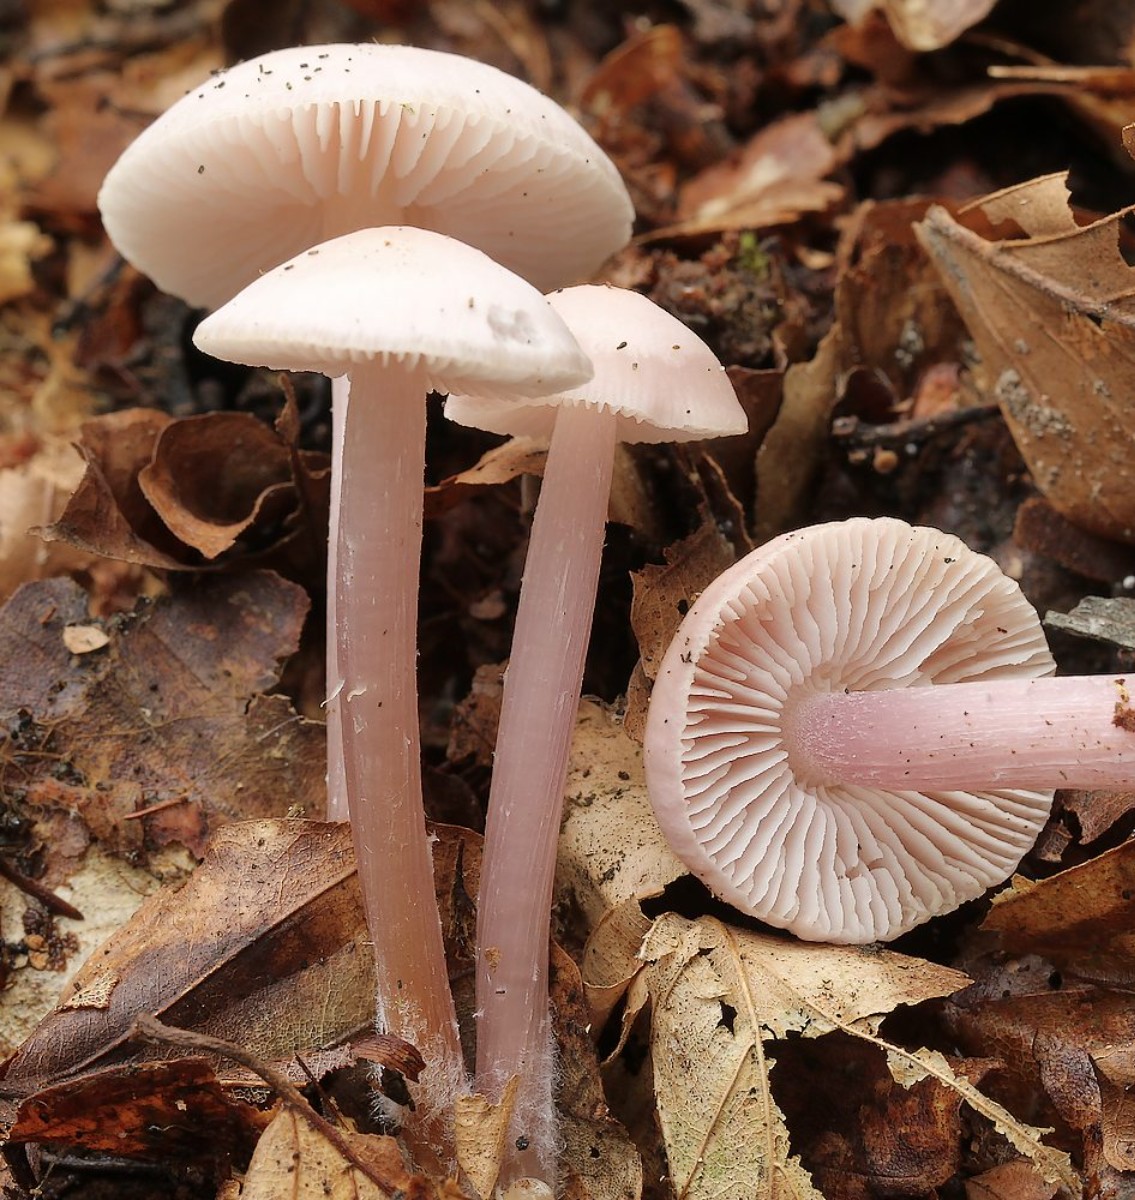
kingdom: Fungi
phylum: Basidiomycota
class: Agaricomycetes
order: Agaricales
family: Mycenaceae
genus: Mycena
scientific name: Mycena rosea
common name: rosa huesvamp
